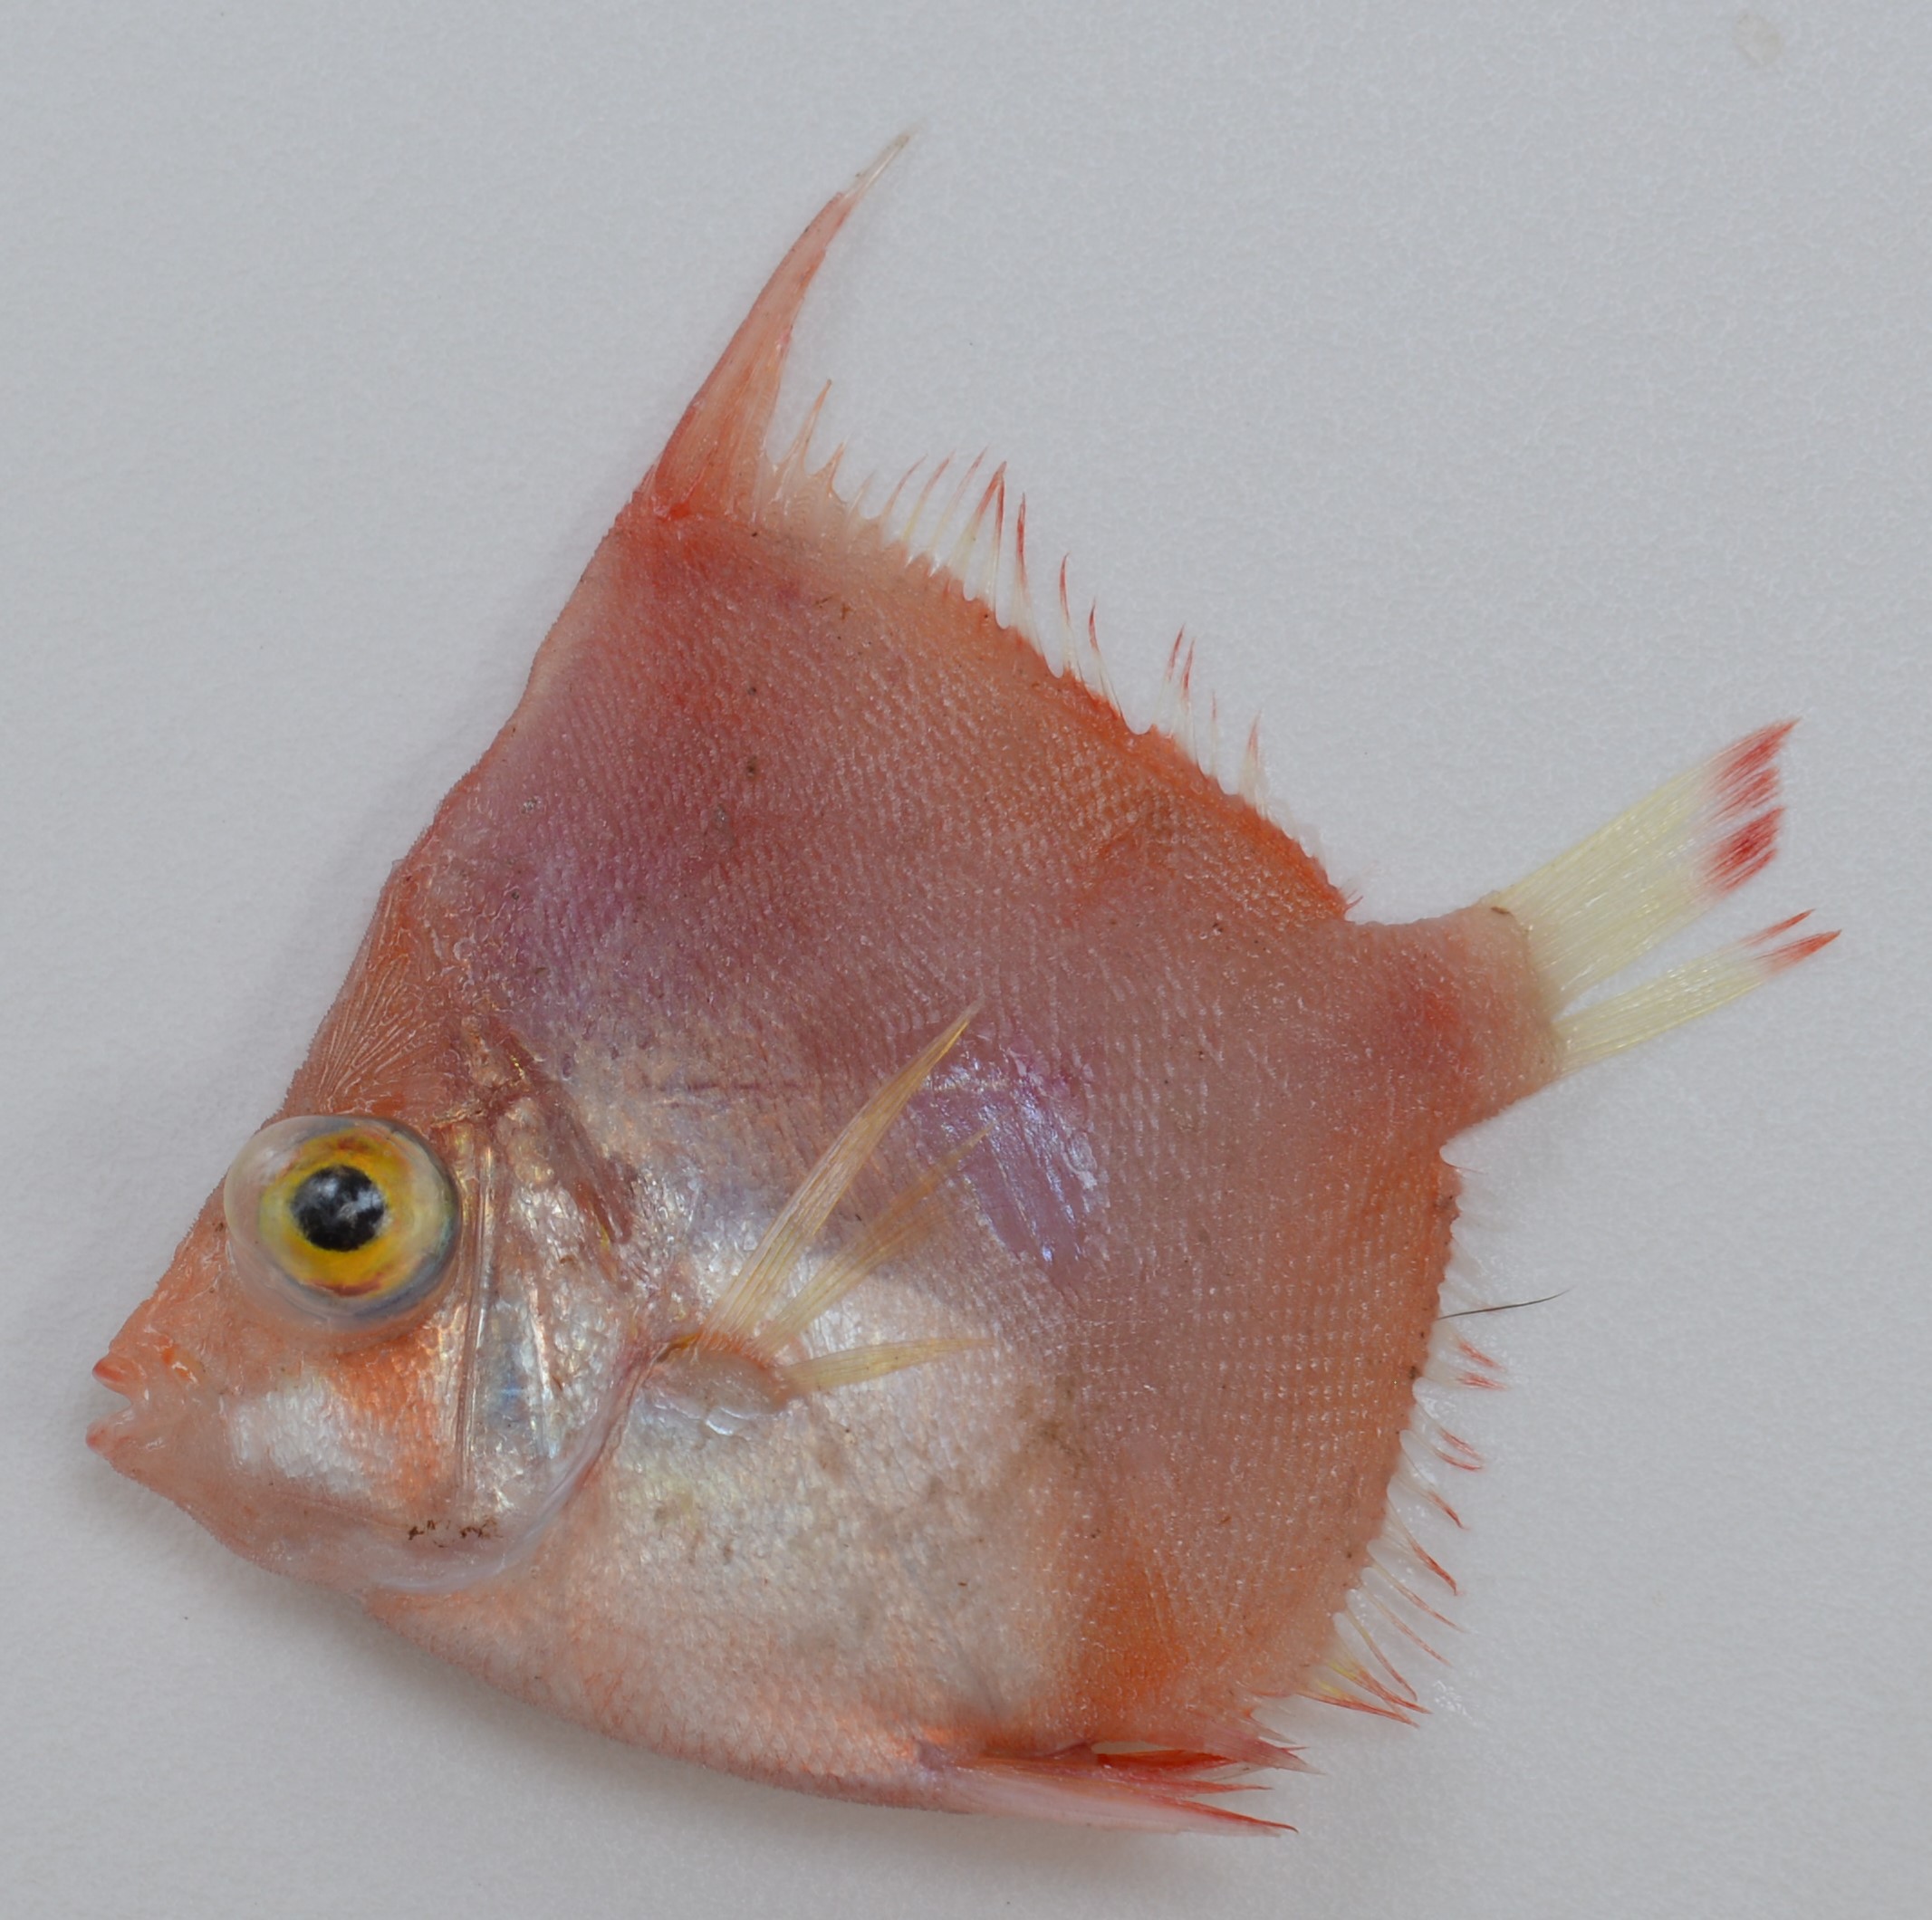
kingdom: Animalia
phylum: Chordata
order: Perciformes
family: Caproidae
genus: Antigonia
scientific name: Antigonia hulleyi
